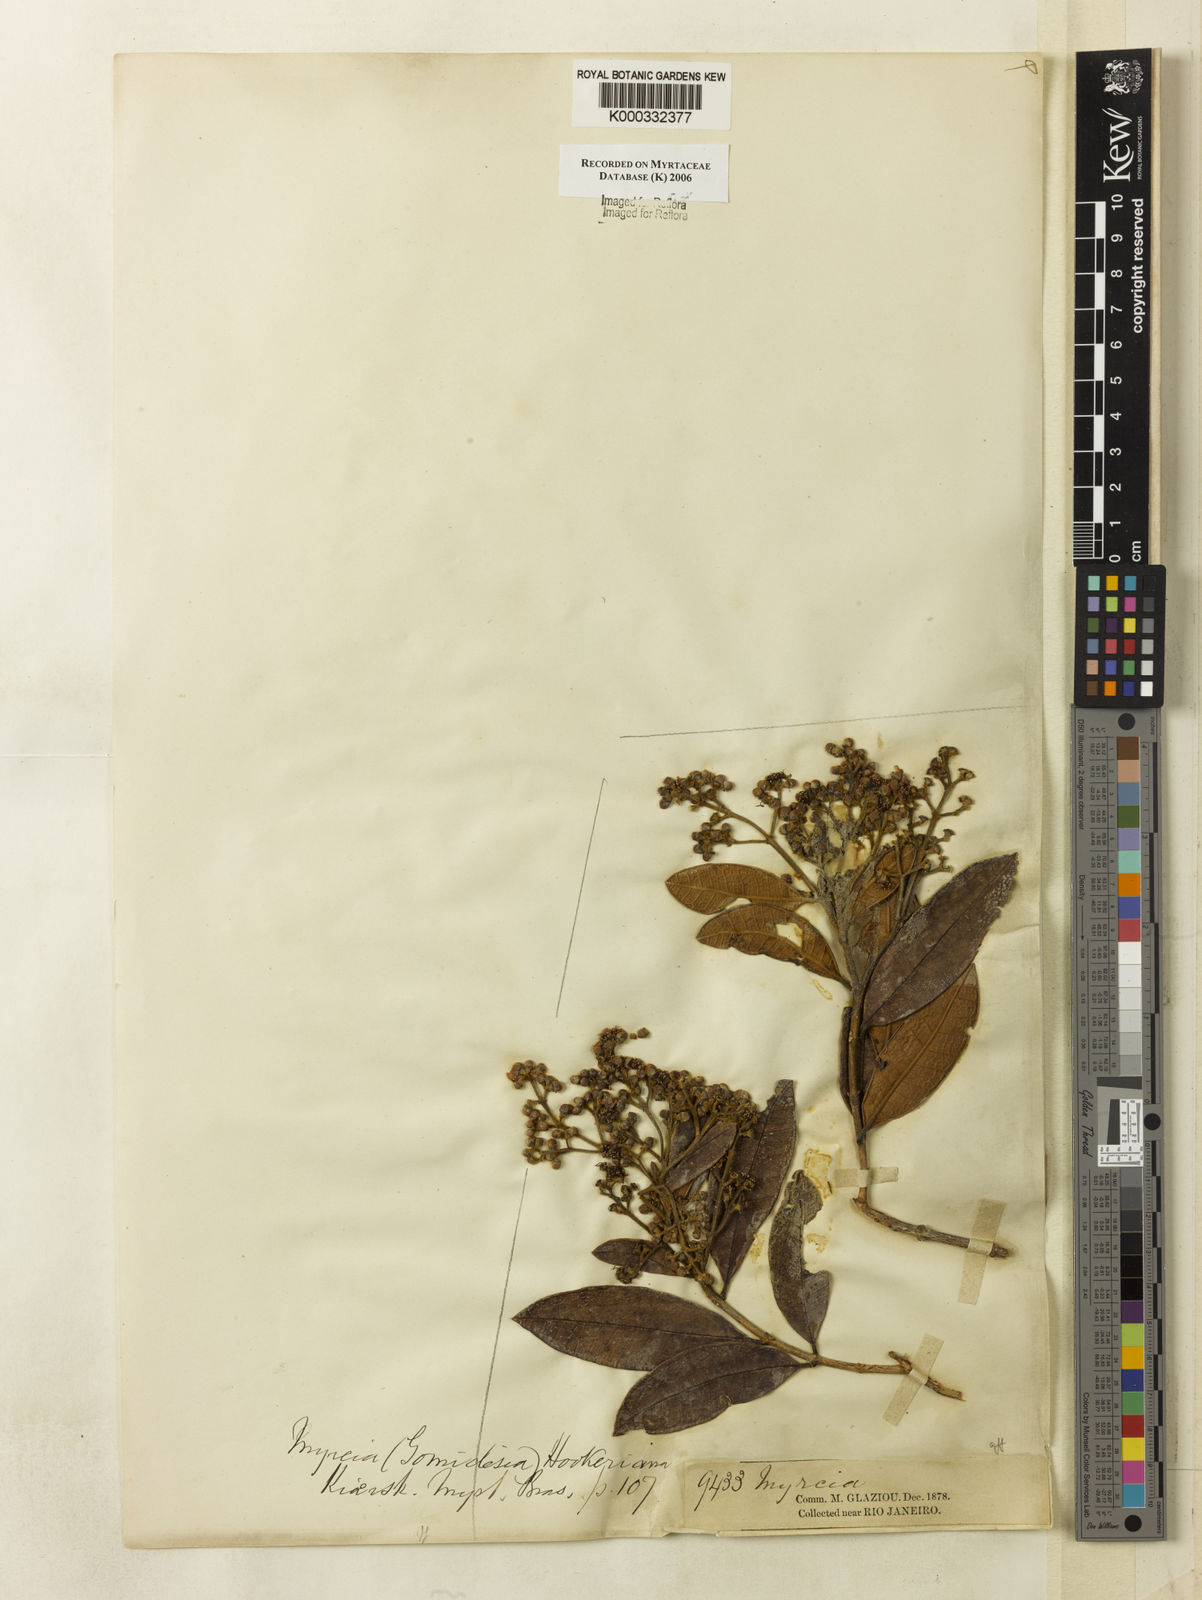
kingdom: Plantae
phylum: Tracheophyta
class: Magnoliopsida
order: Myrtales
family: Myrtaceae
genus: Myrcia
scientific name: Myrcia hebepetala
